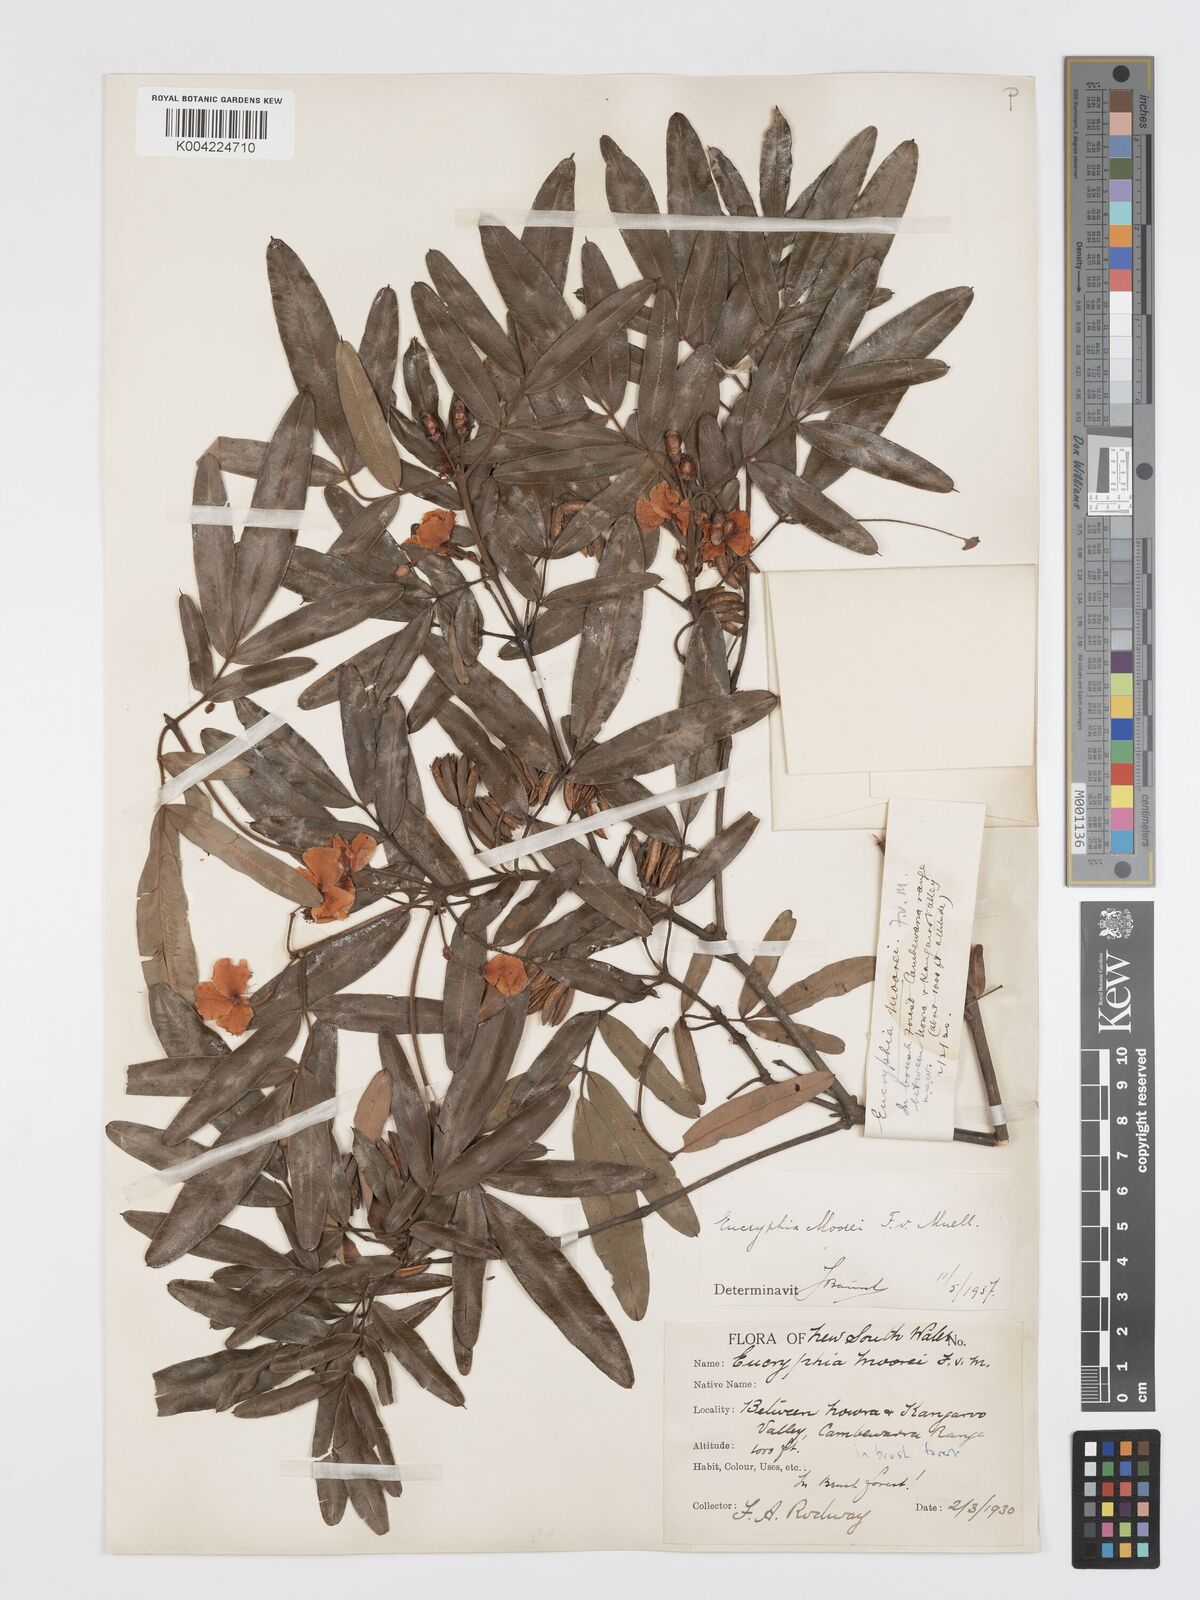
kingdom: Plantae
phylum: Tracheophyta
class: Magnoliopsida
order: Oxalidales
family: Cunoniaceae
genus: Eucryphia
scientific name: Eucryphia moorei
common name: Acacia-plum
